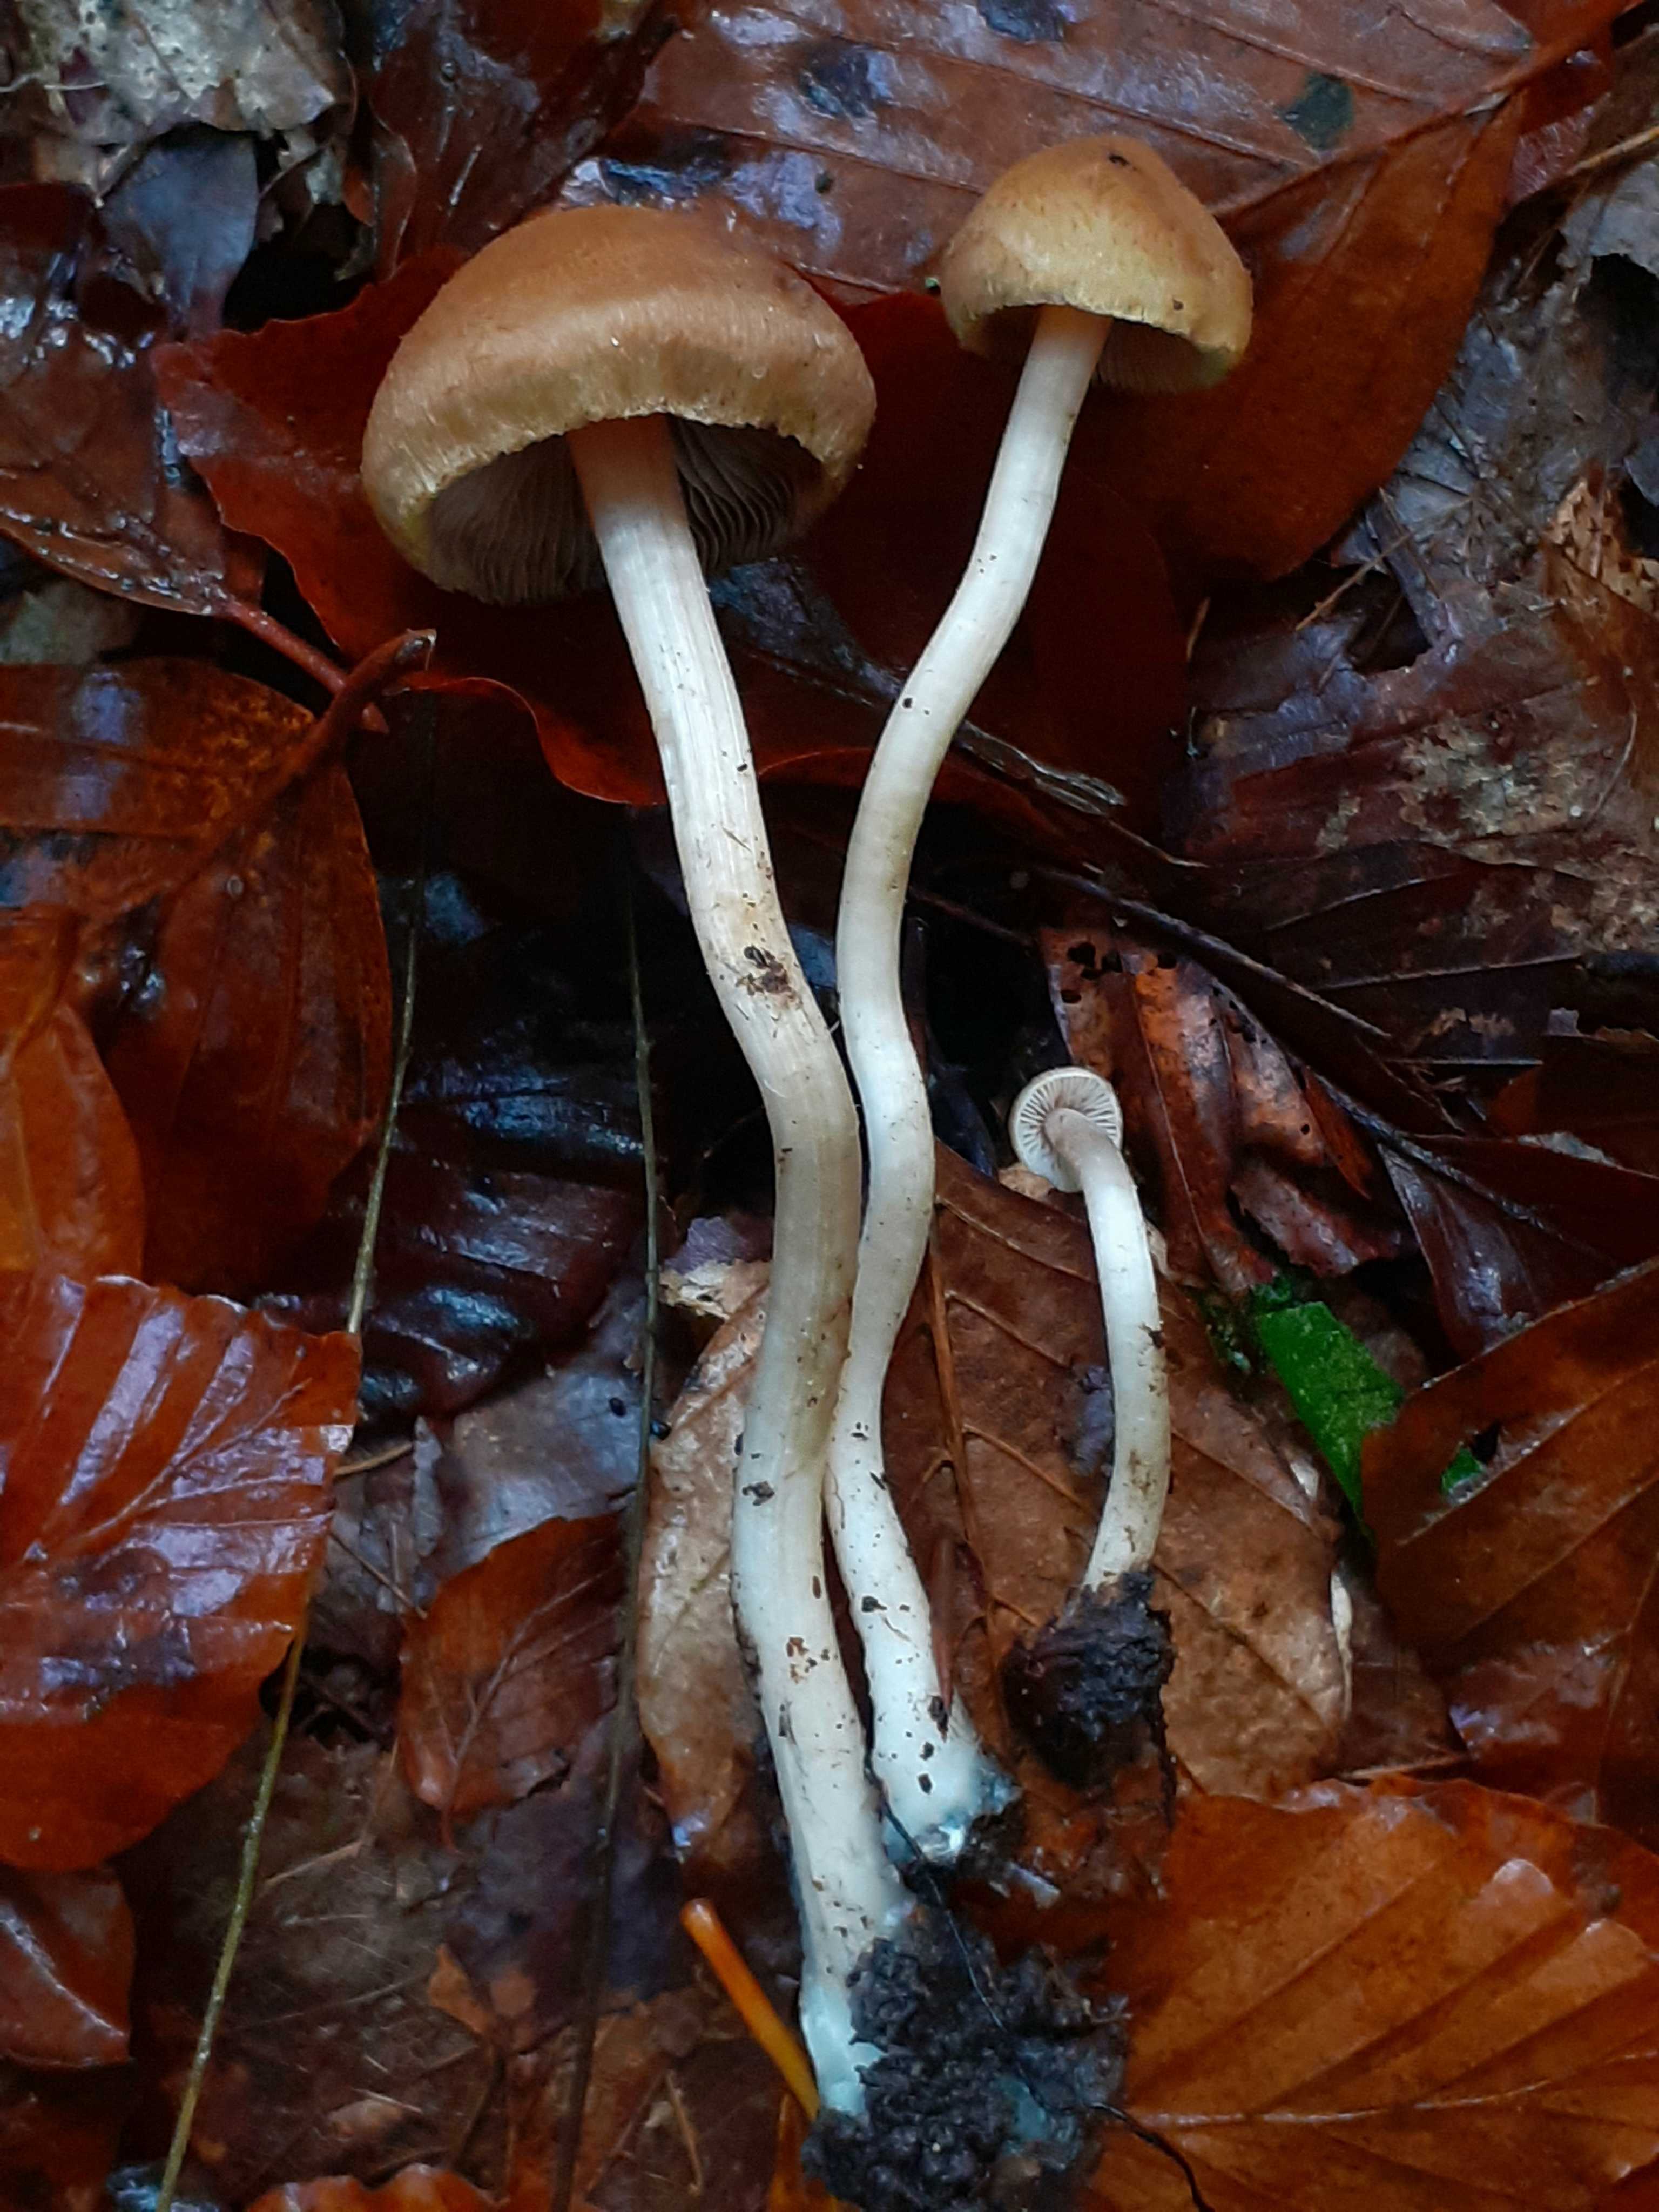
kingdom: Fungi
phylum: Basidiomycota
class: Agaricomycetes
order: Agaricales
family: Inocybaceae
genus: Inocybe
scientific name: Inocybe hirtella
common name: mandel-trævlhat
